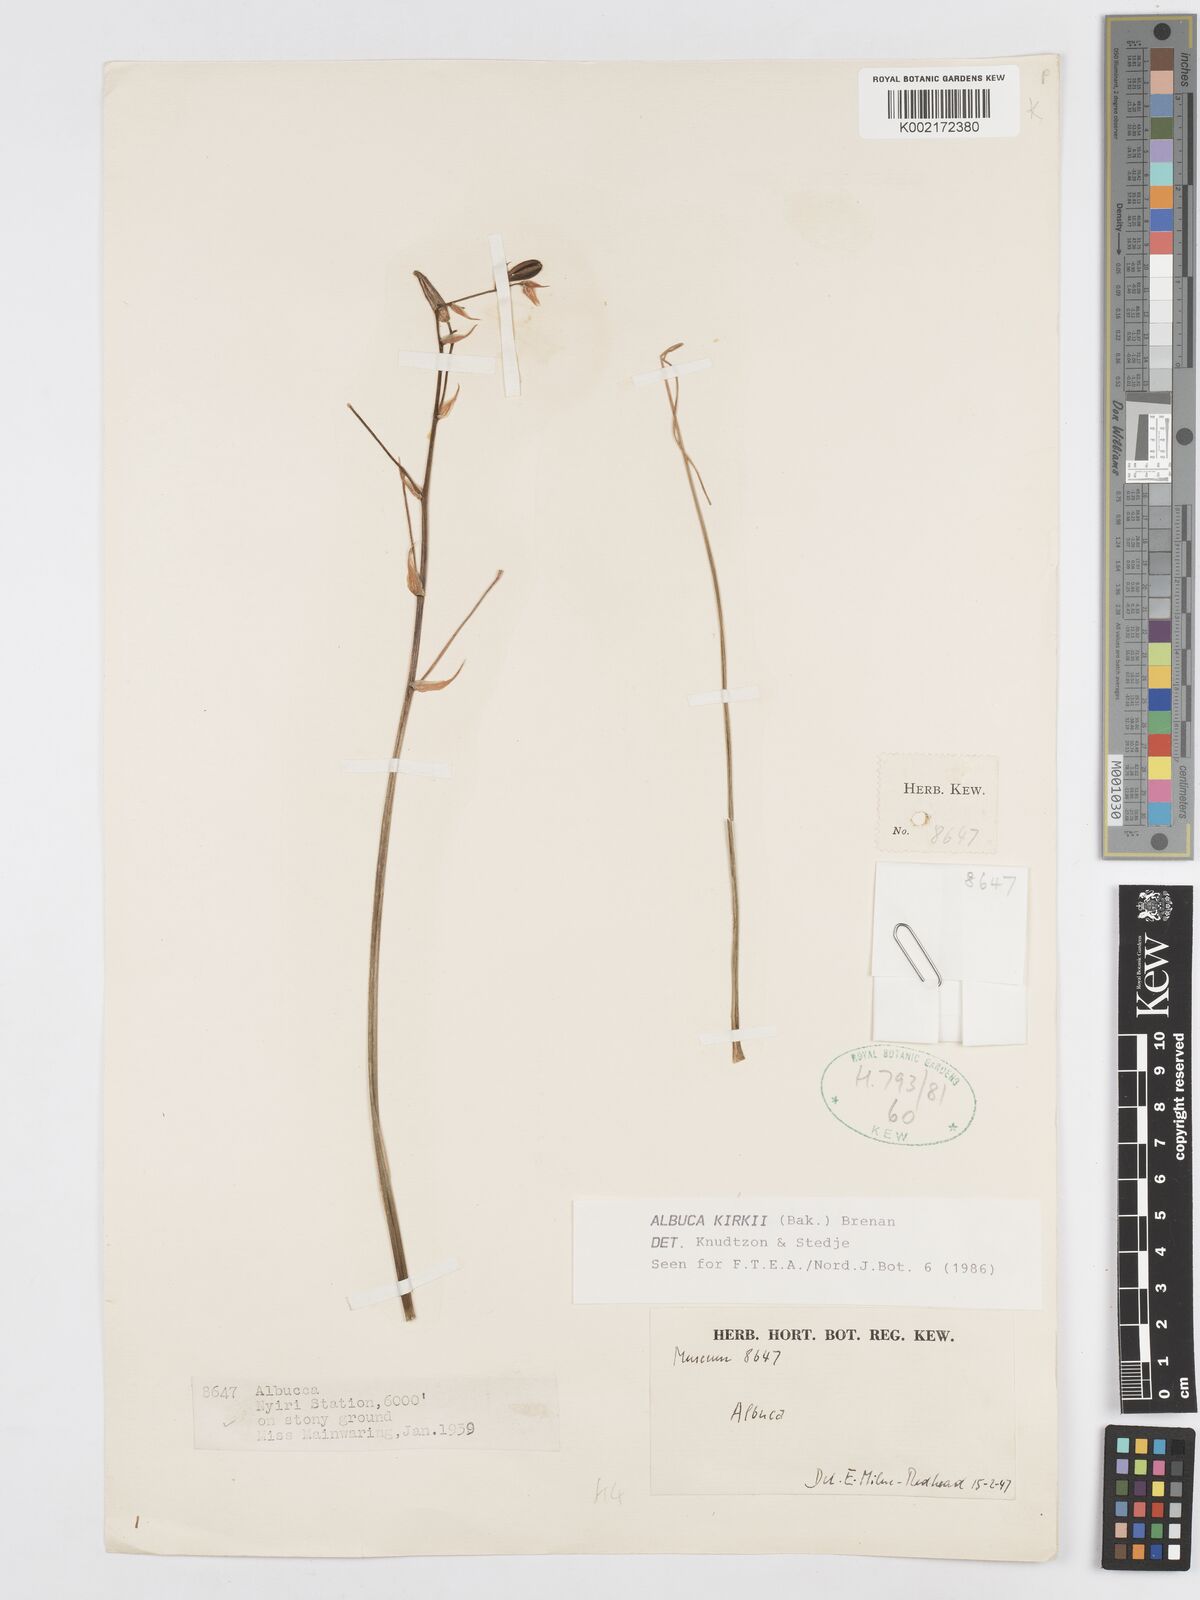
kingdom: Plantae
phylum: Tracheophyta
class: Liliopsida
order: Asparagales
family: Asparagaceae
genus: Albuca
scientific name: Albuca kirkii
